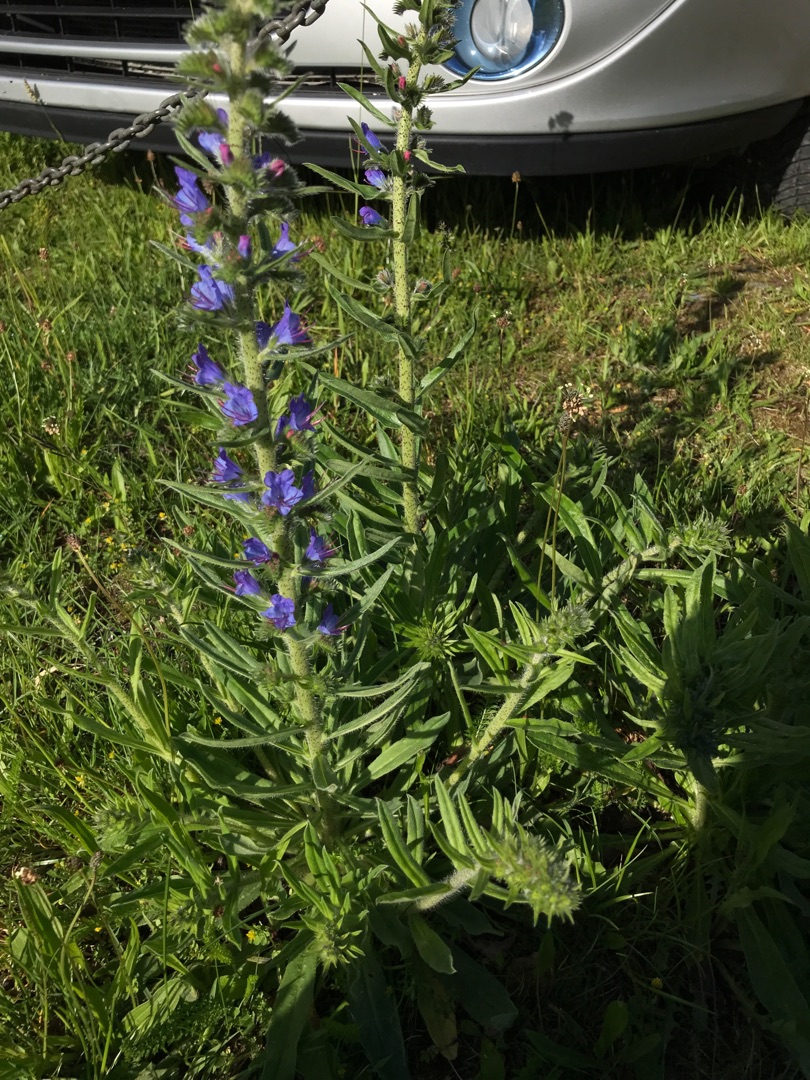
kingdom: Plantae
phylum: Tracheophyta
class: Magnoliopsida
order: Boraginales
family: Boraginaceae
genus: Echium
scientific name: Echium vulgare
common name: Slangehoved
